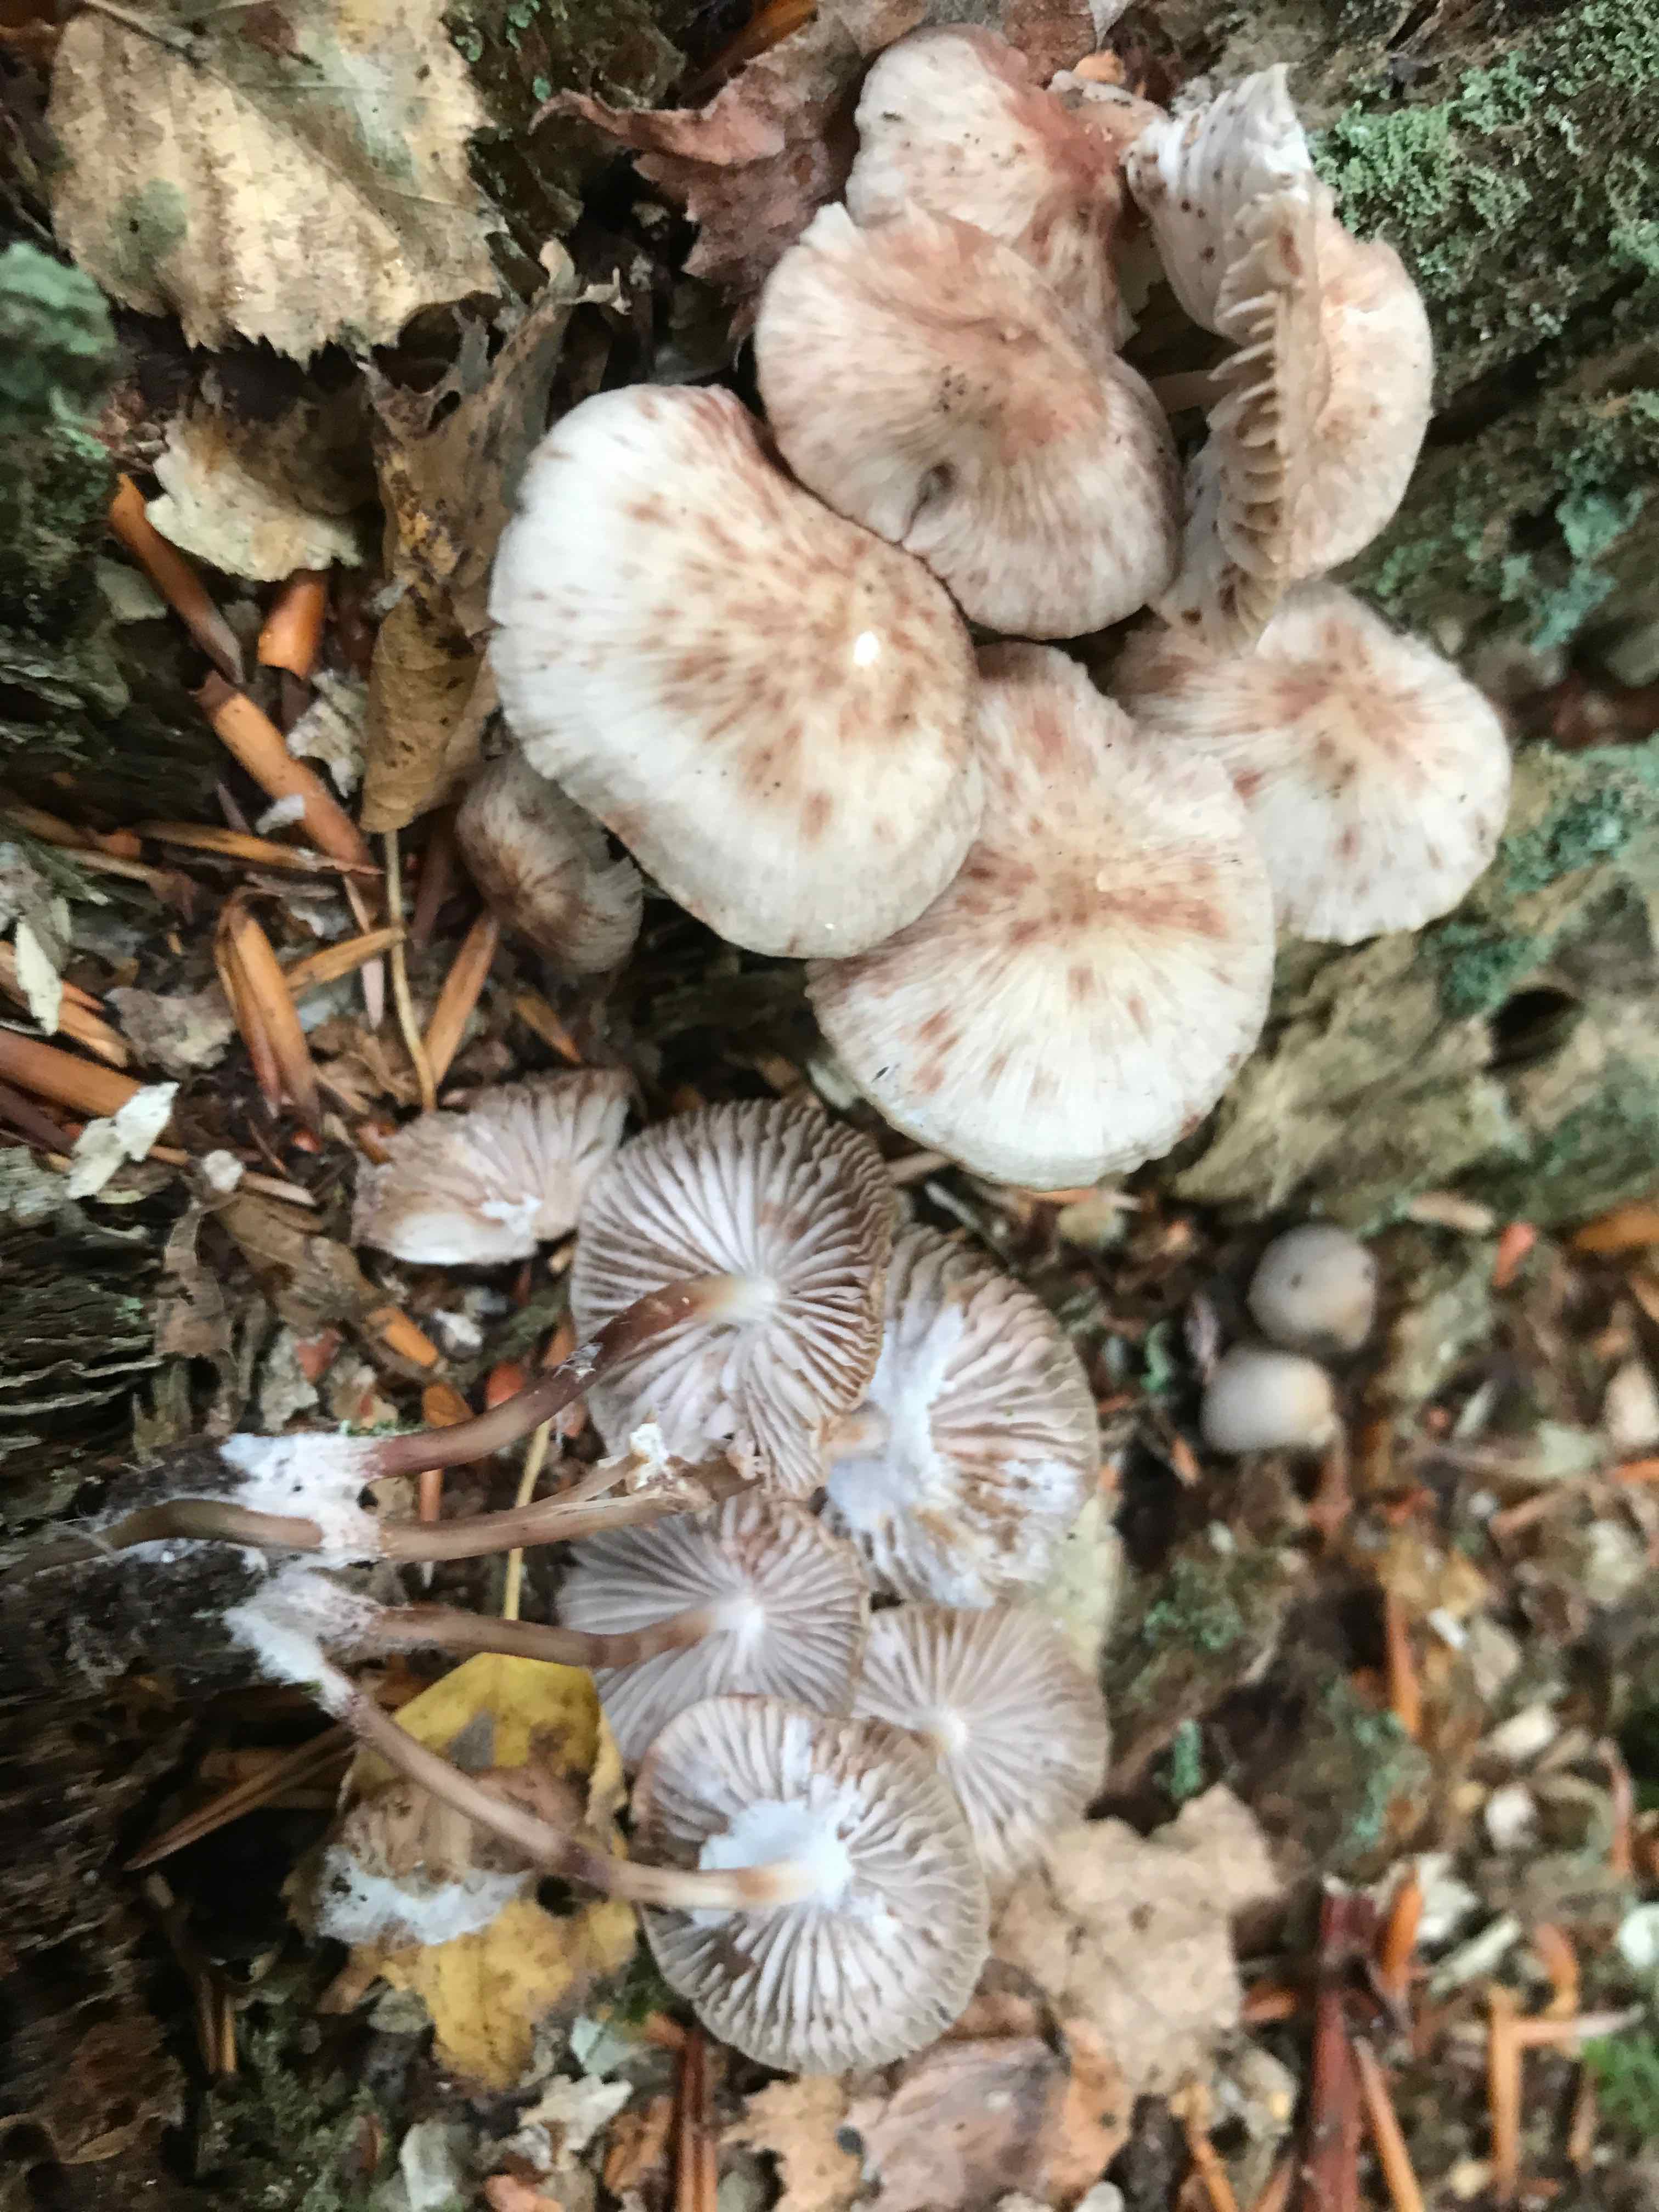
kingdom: Fungi
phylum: Basidiomycota
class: Agaricomycetes
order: Agaricales
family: Mycenaceae
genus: Mycena
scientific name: Mycena maculata
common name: rødplettet huesvamp
